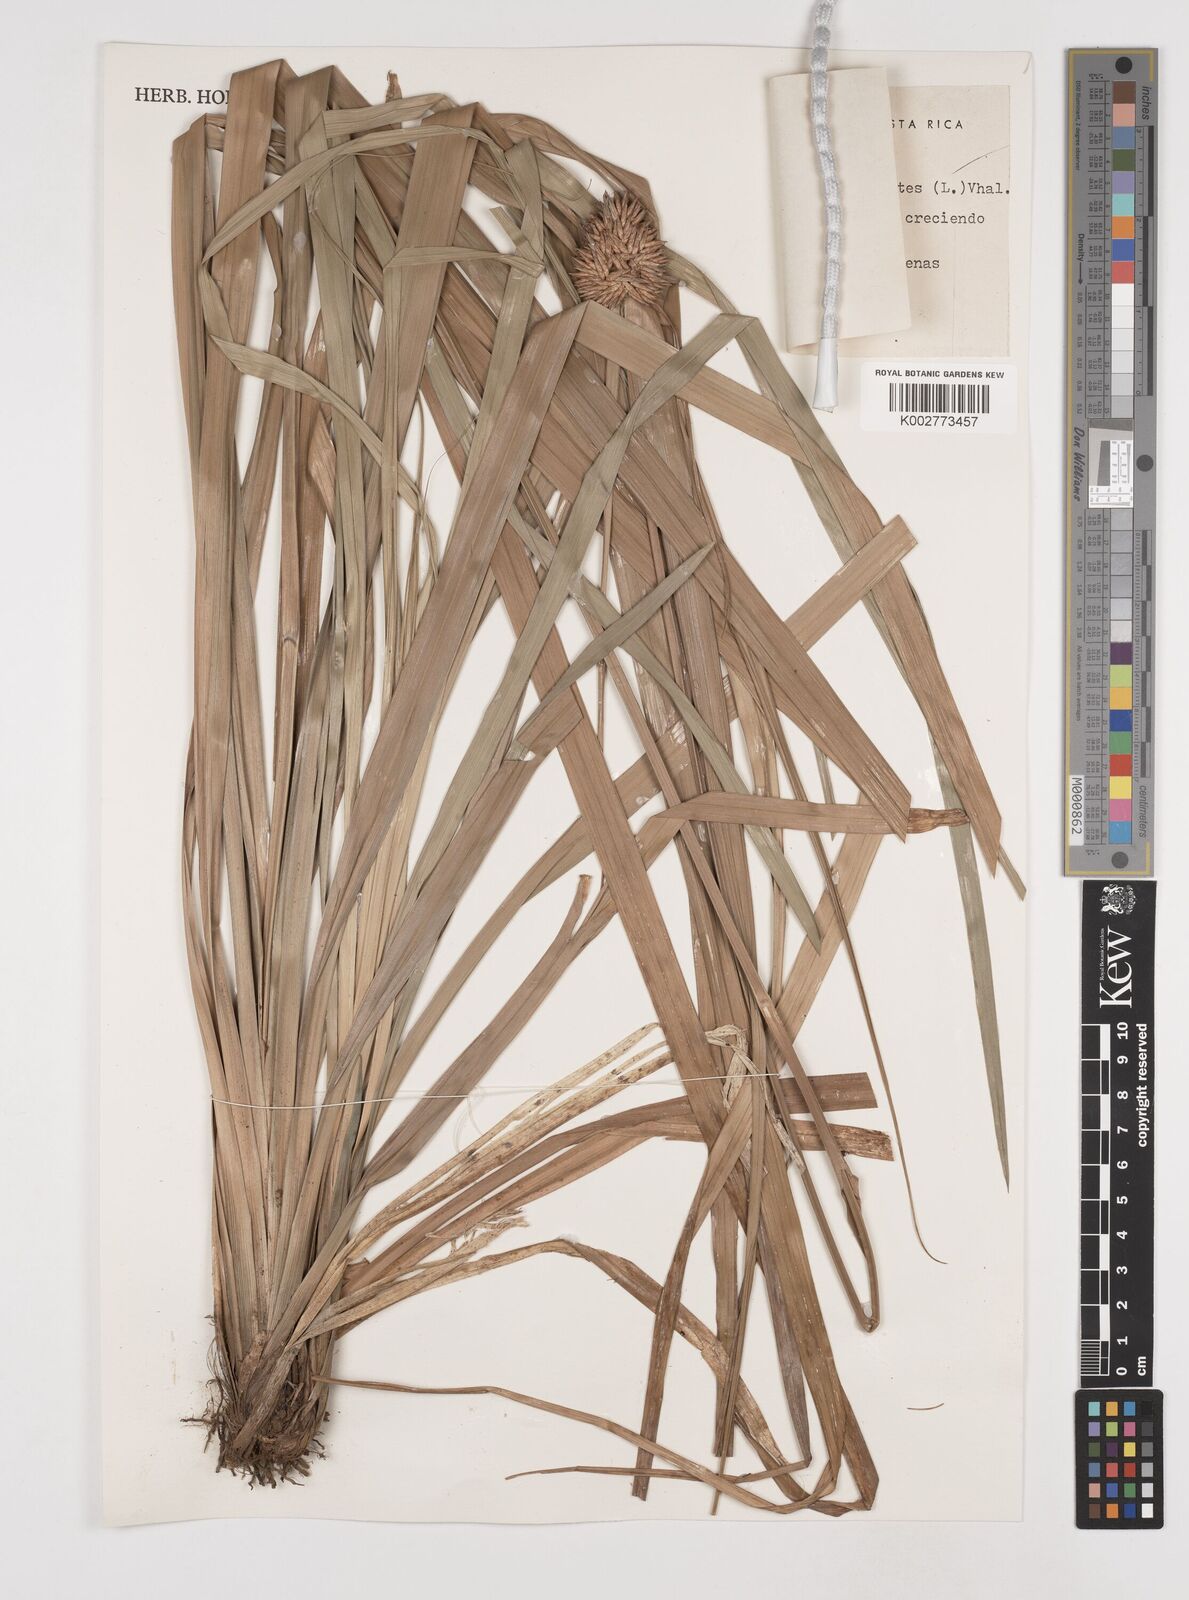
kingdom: Plantae
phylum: Tracheophyta
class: Liliopsida
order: Poales
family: Cyperaceae
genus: Rhynchospora
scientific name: Rhynchospora cephalotes
